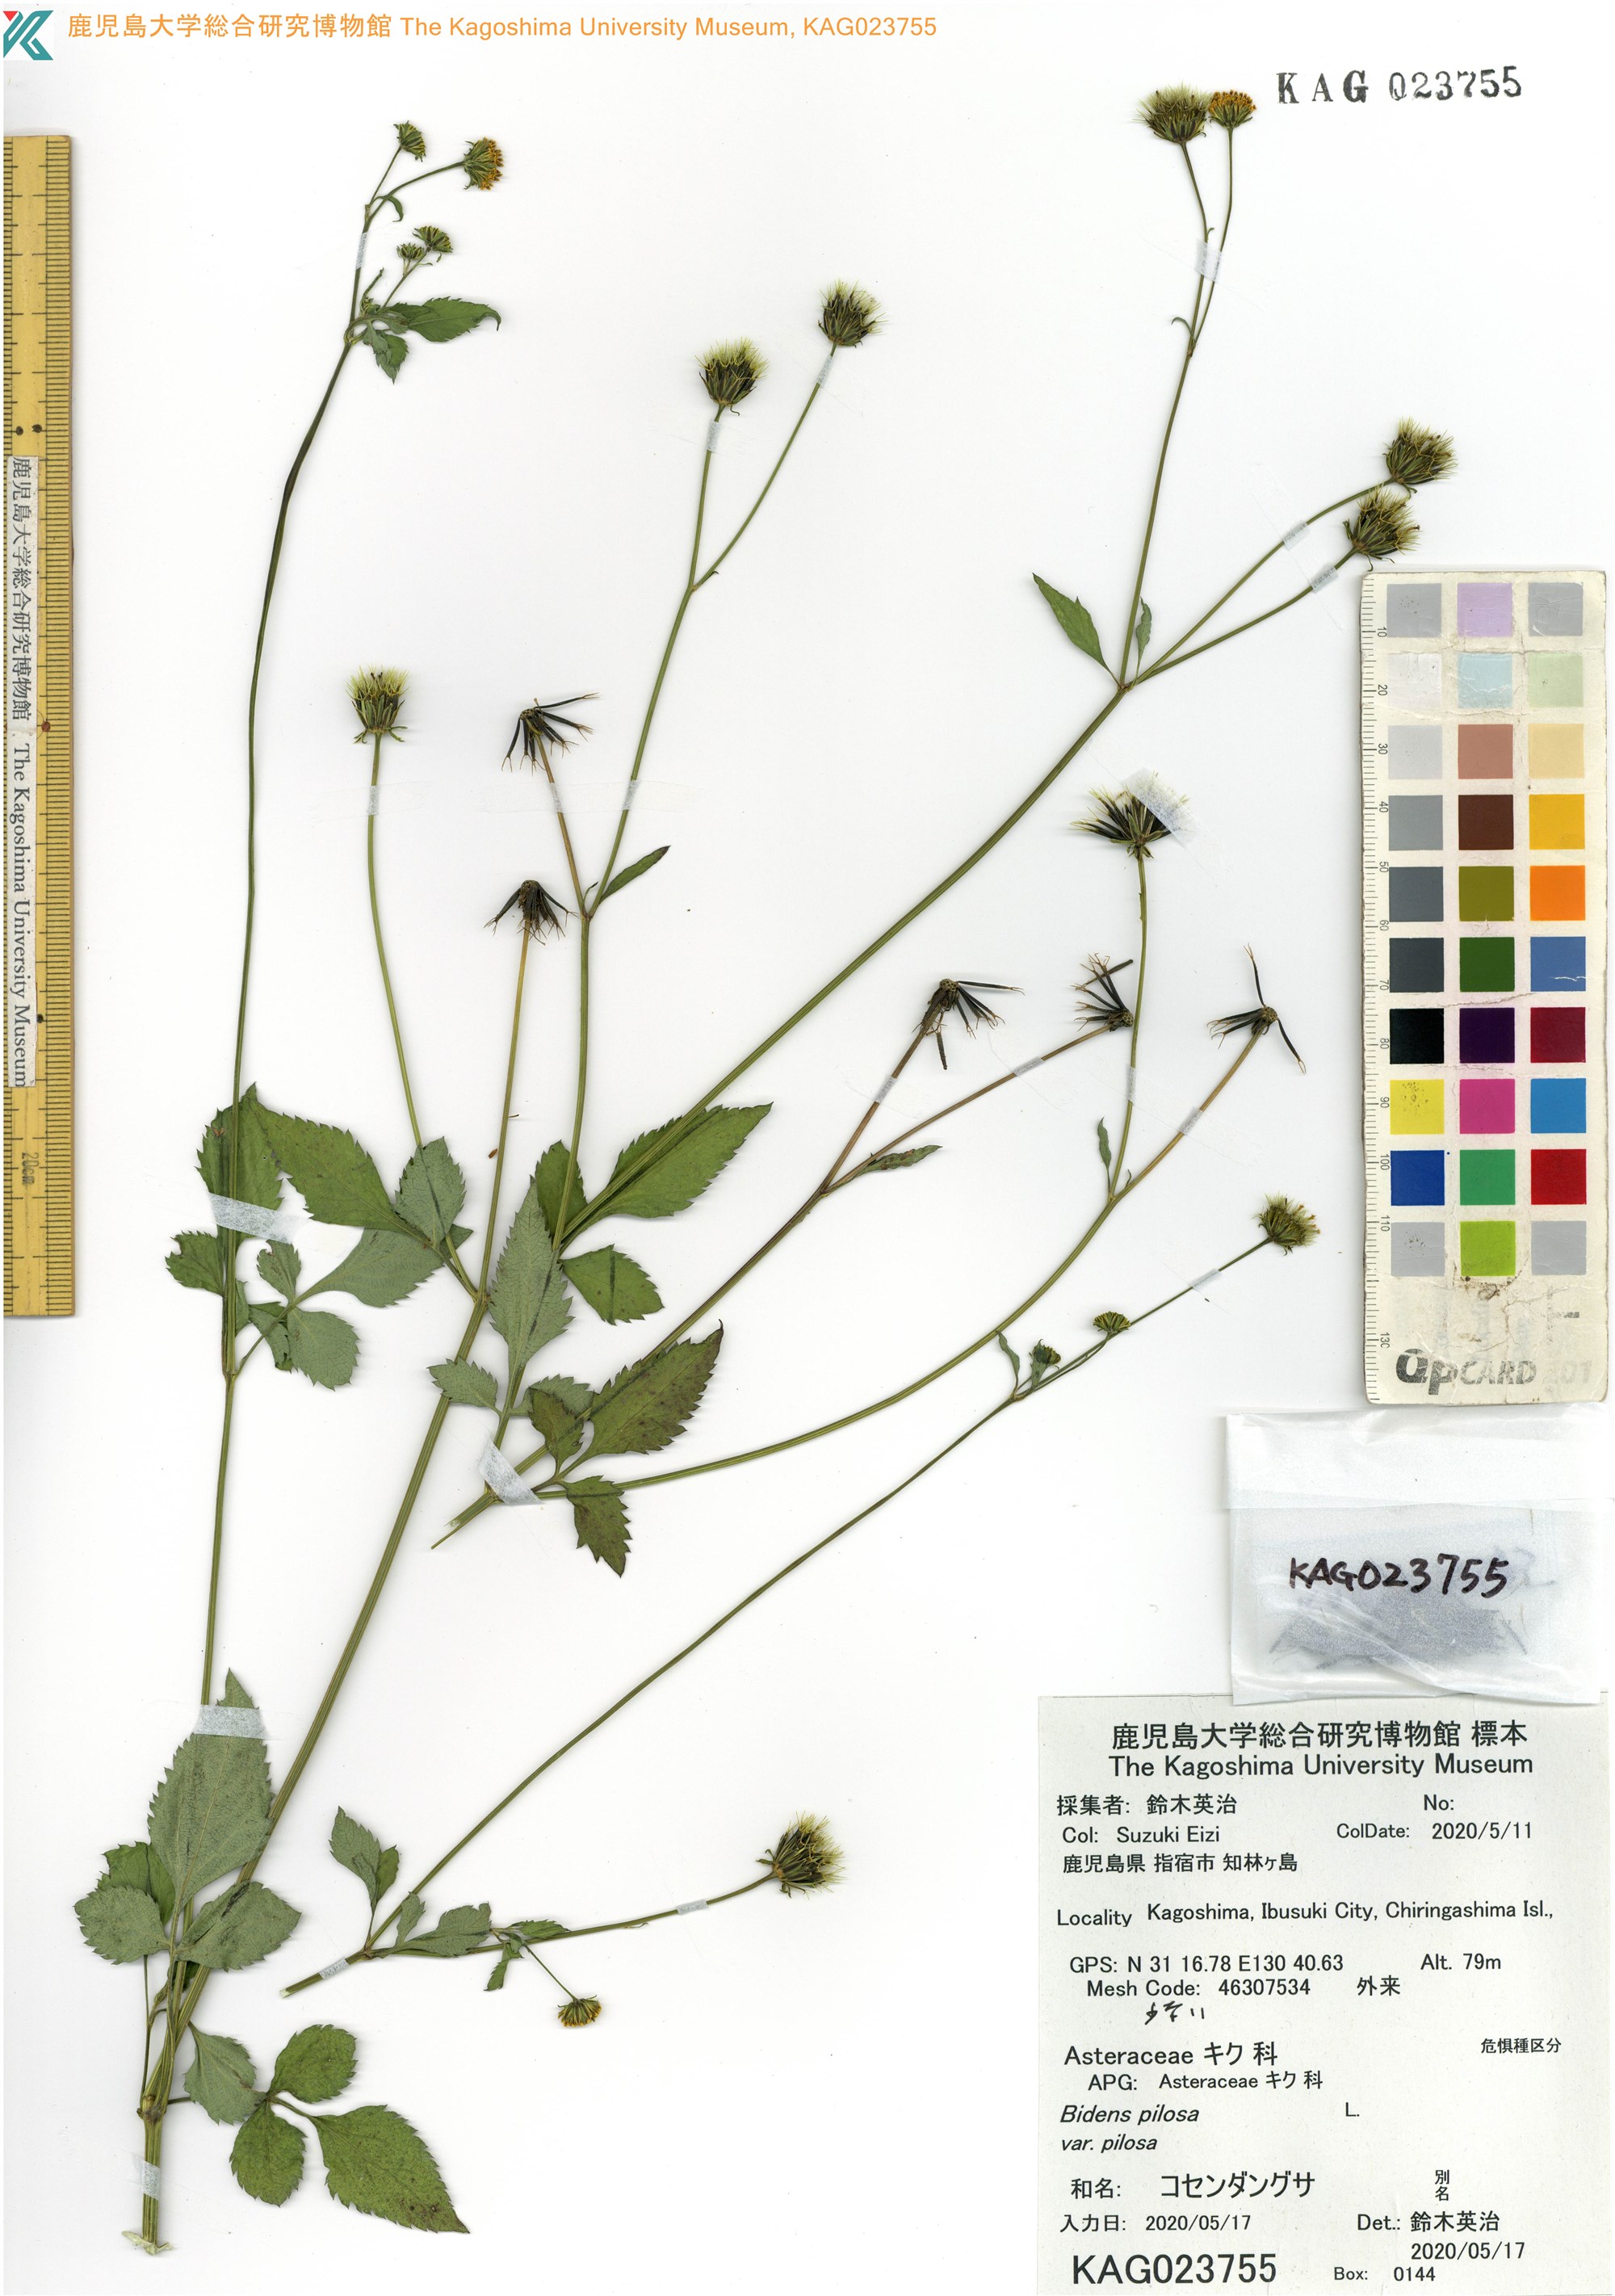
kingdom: Plantae
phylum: Tracheophyta
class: Magnoliopsida
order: Asterales
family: Asteraceae
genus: Bidens
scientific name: Bidens pilosa
